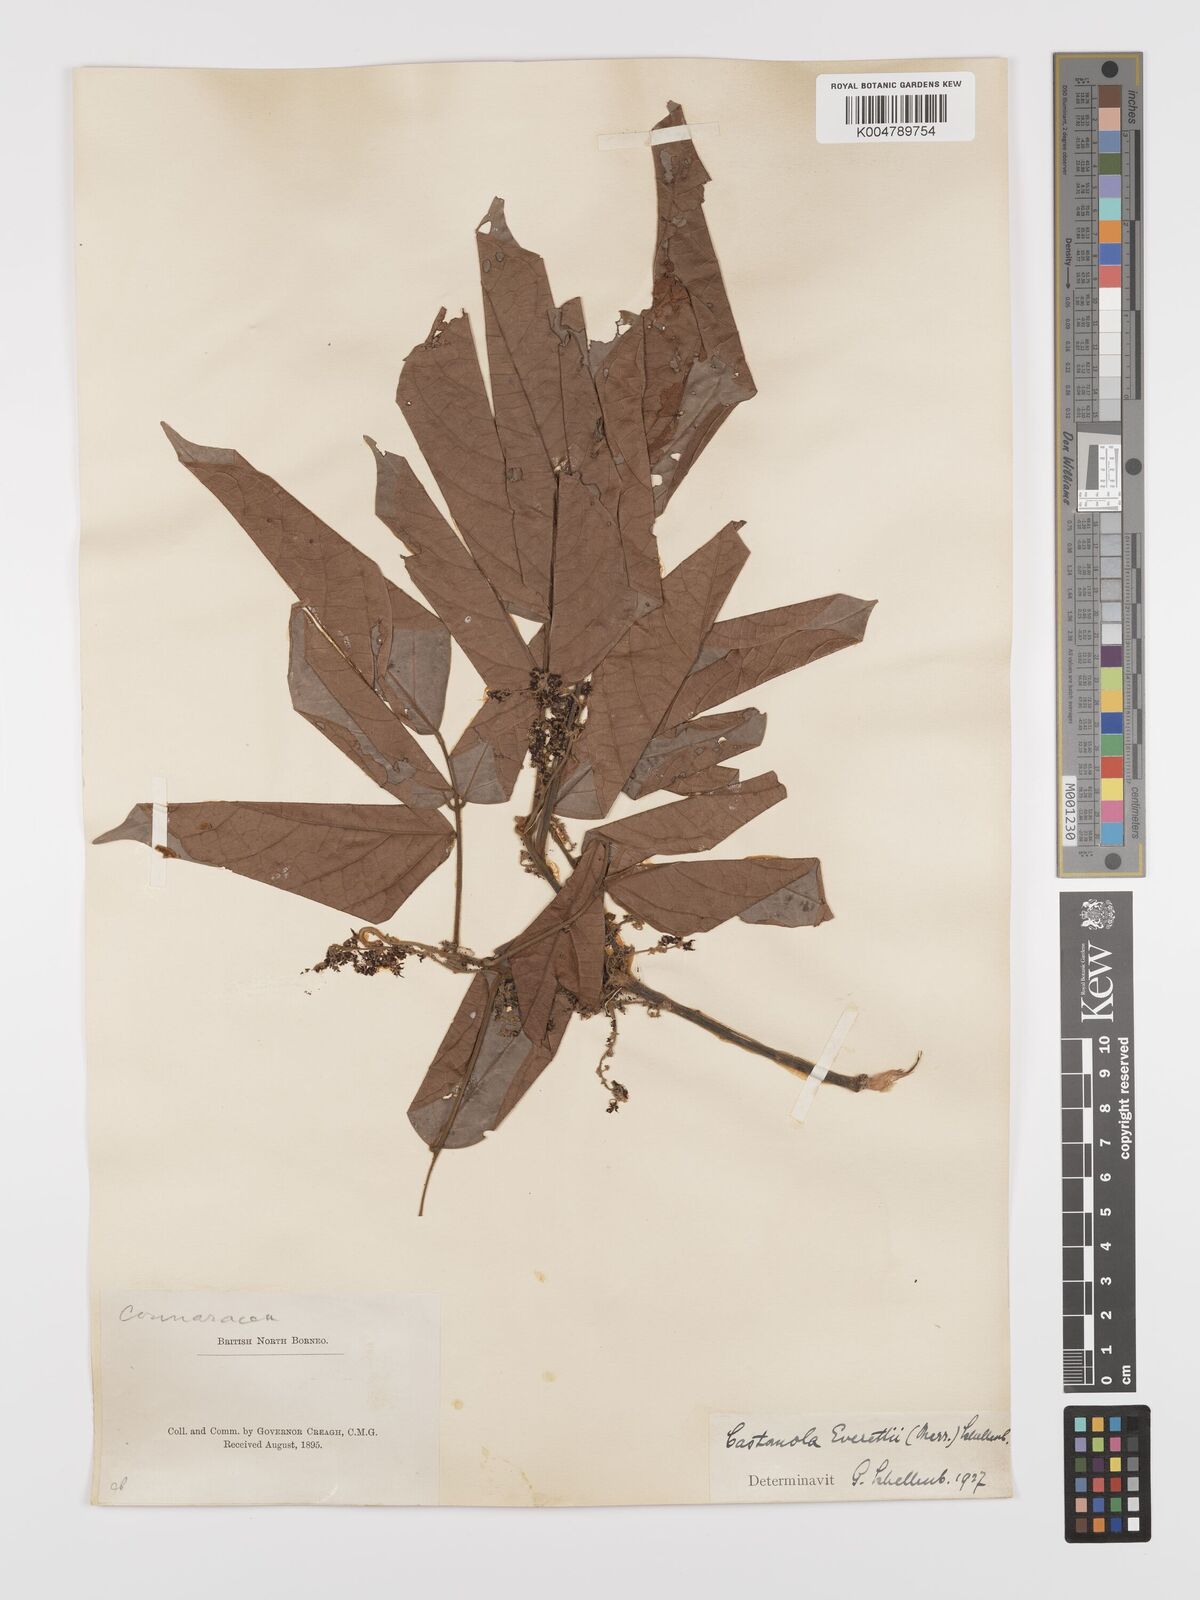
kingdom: Plantae
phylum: Tracheophyta
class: Magnoliopsida
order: Oxalidales
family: Connaraceae
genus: Agelaea
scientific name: Agelaea borneensis
